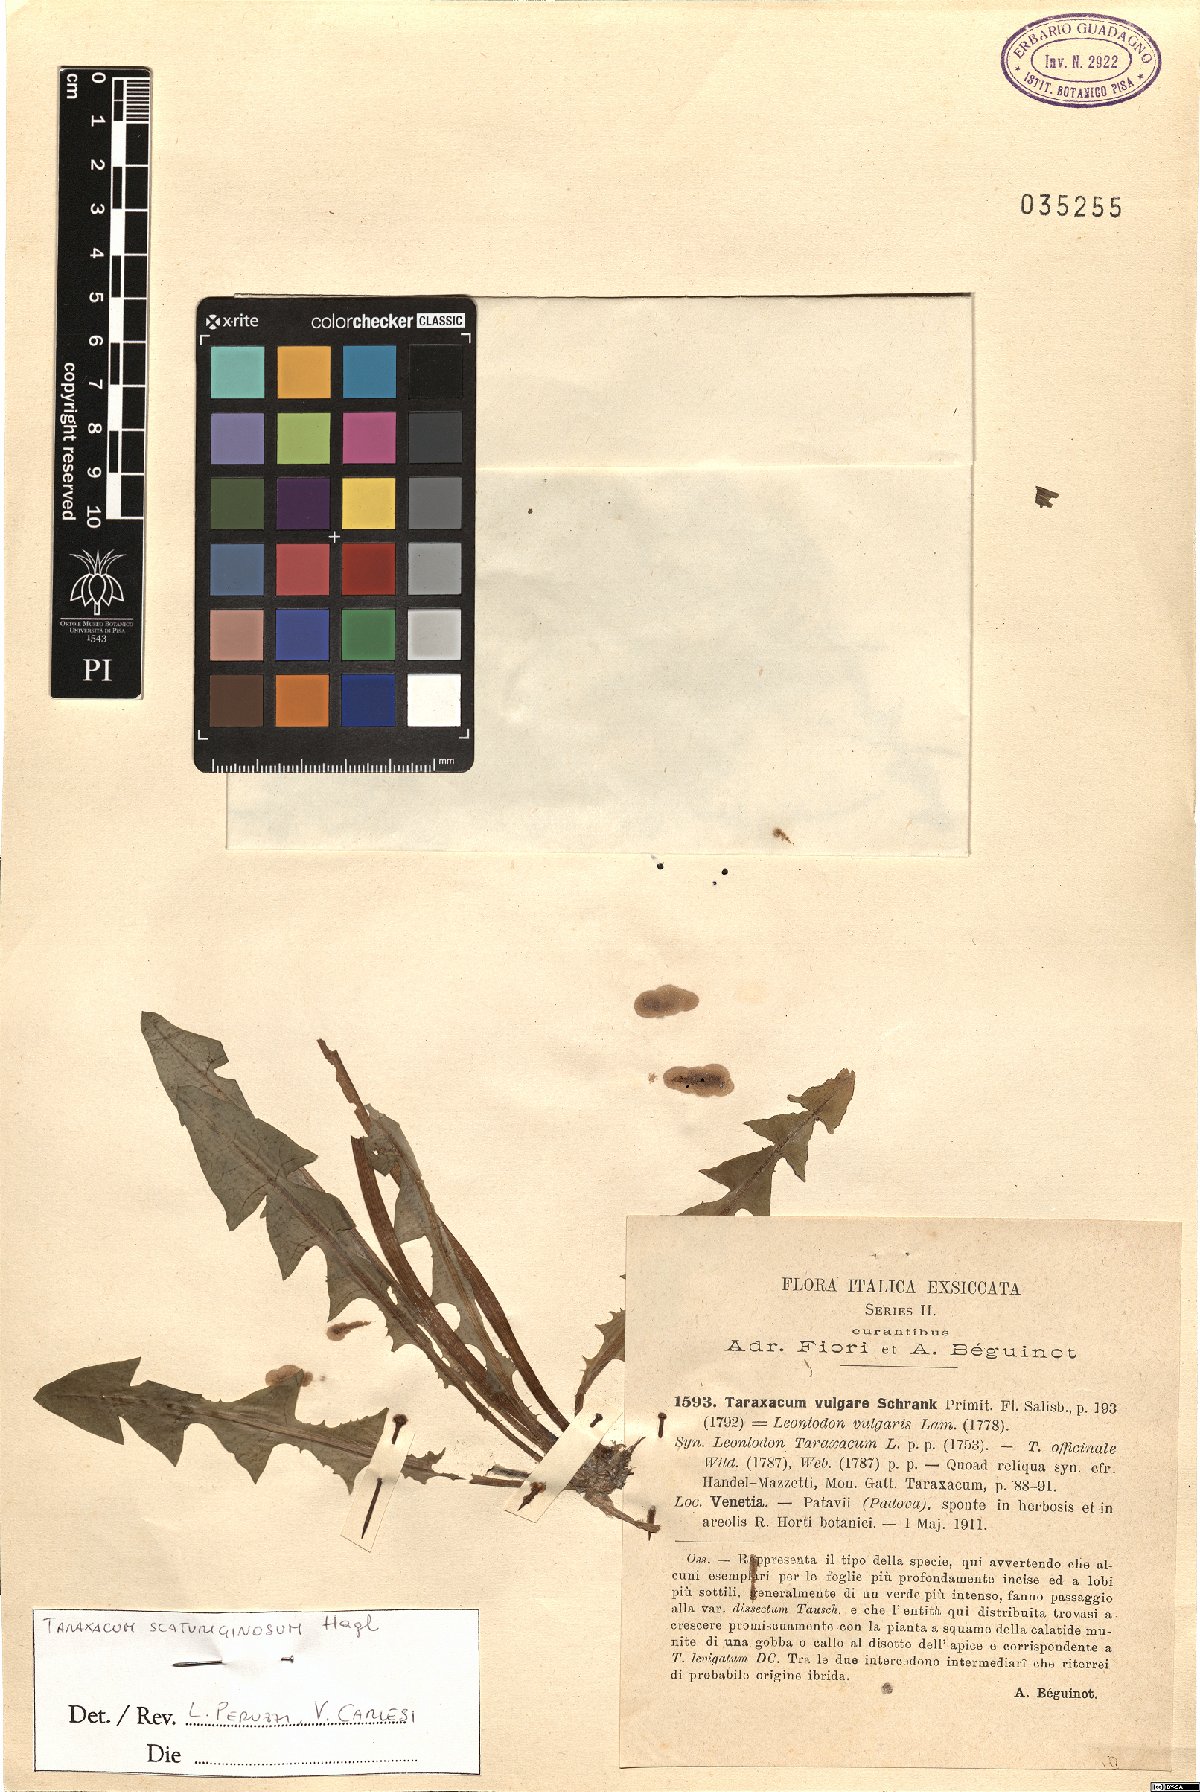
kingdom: Plantae
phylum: Tracheophyta
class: Magnoliopsida
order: Asterales
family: Asteraceae
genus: Taraxacum
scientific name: Taraxacum scaturiginosum
